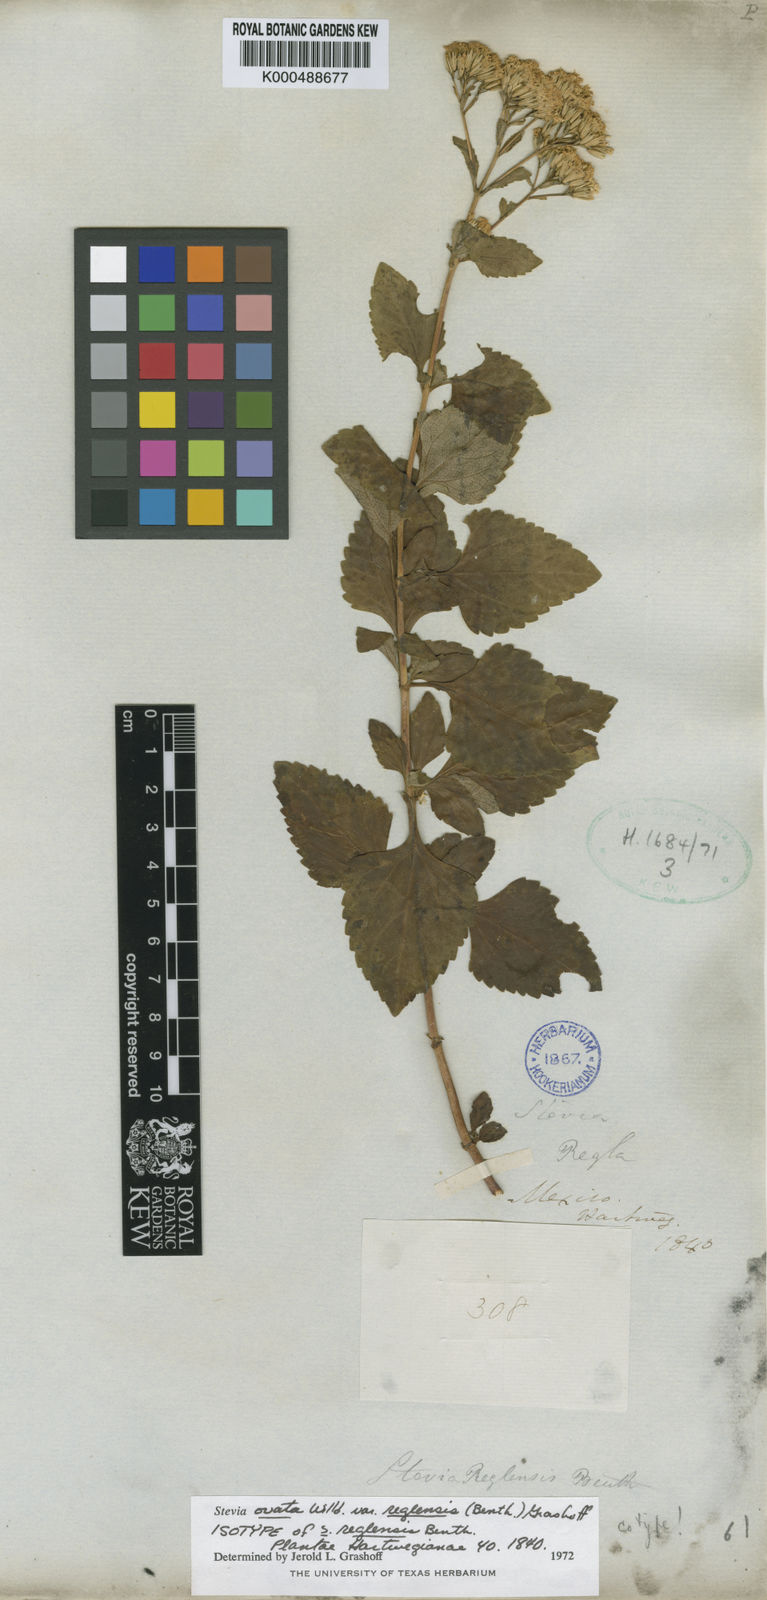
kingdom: Plantae
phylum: Tracheophyta
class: Magnoliopsida
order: Asterales
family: Asteraceae
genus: Stevia
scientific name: Stevia ovata
